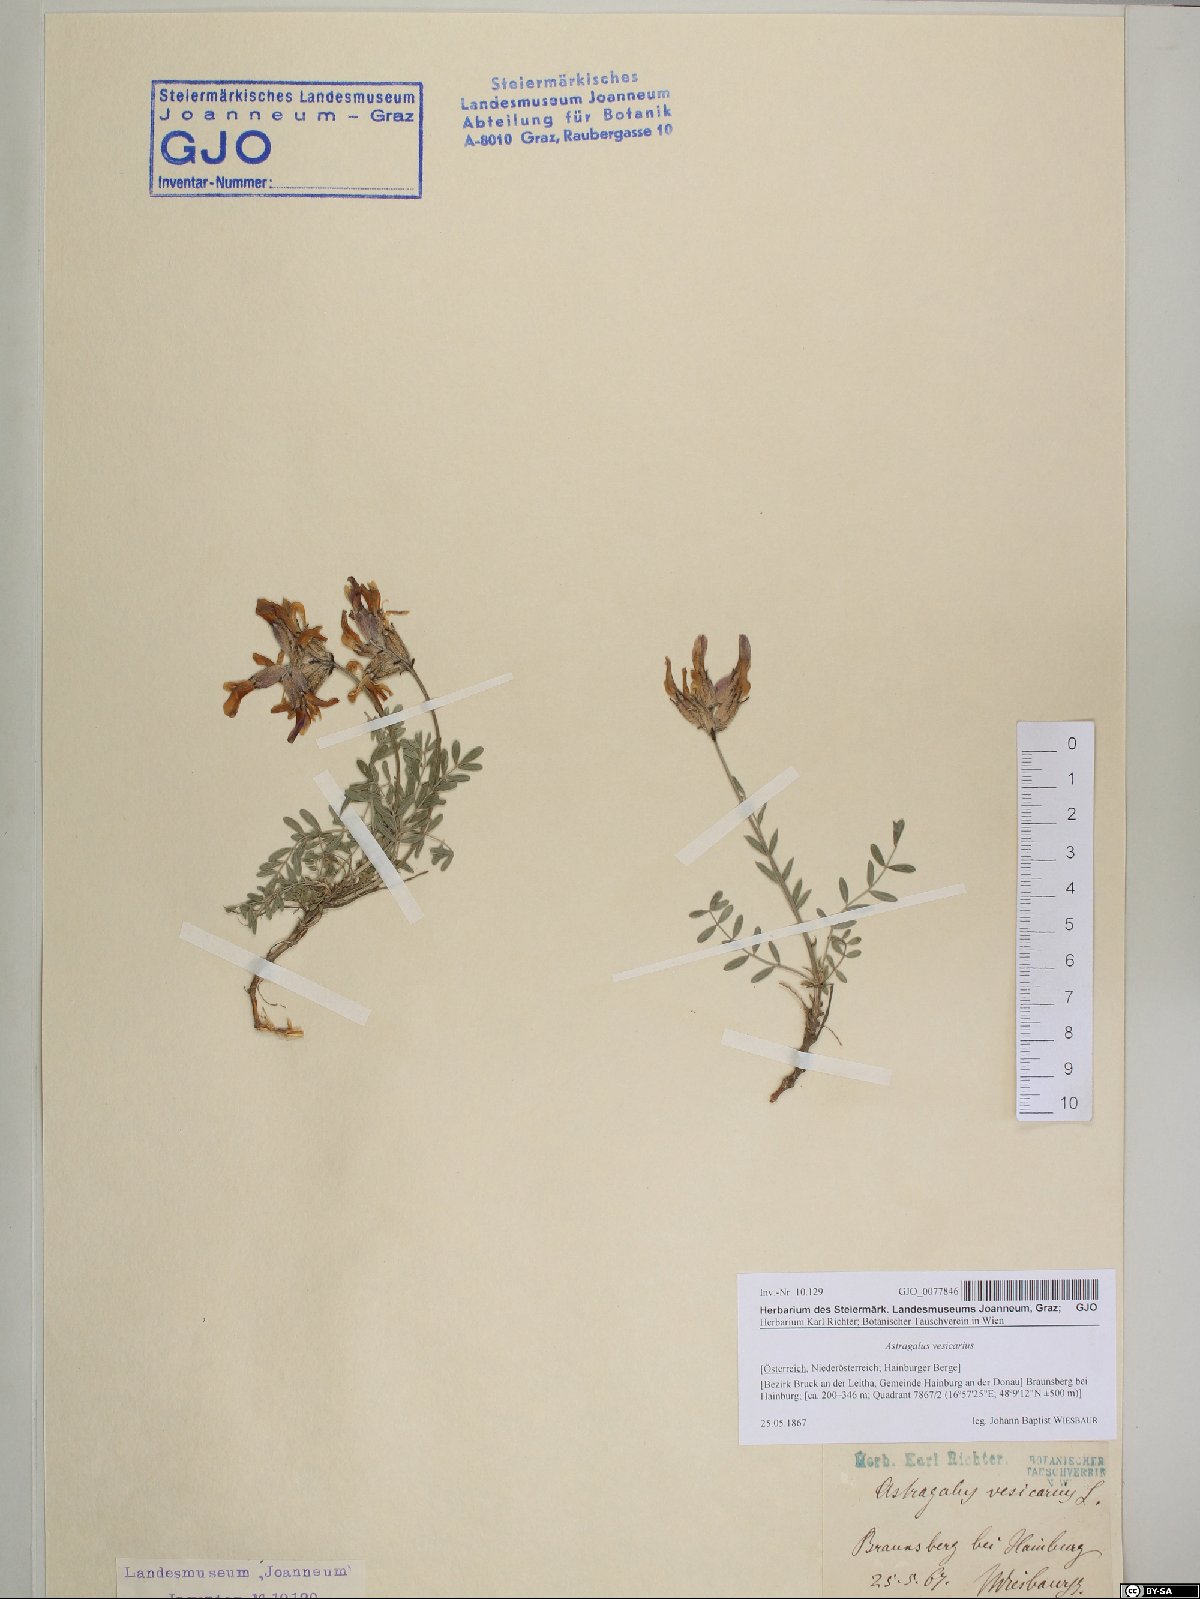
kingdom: Plantae
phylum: Tracheophyta
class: Magnoliopsida
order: Fabales
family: Fabaceae
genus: Astragalus
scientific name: Astragalus vesicarius
